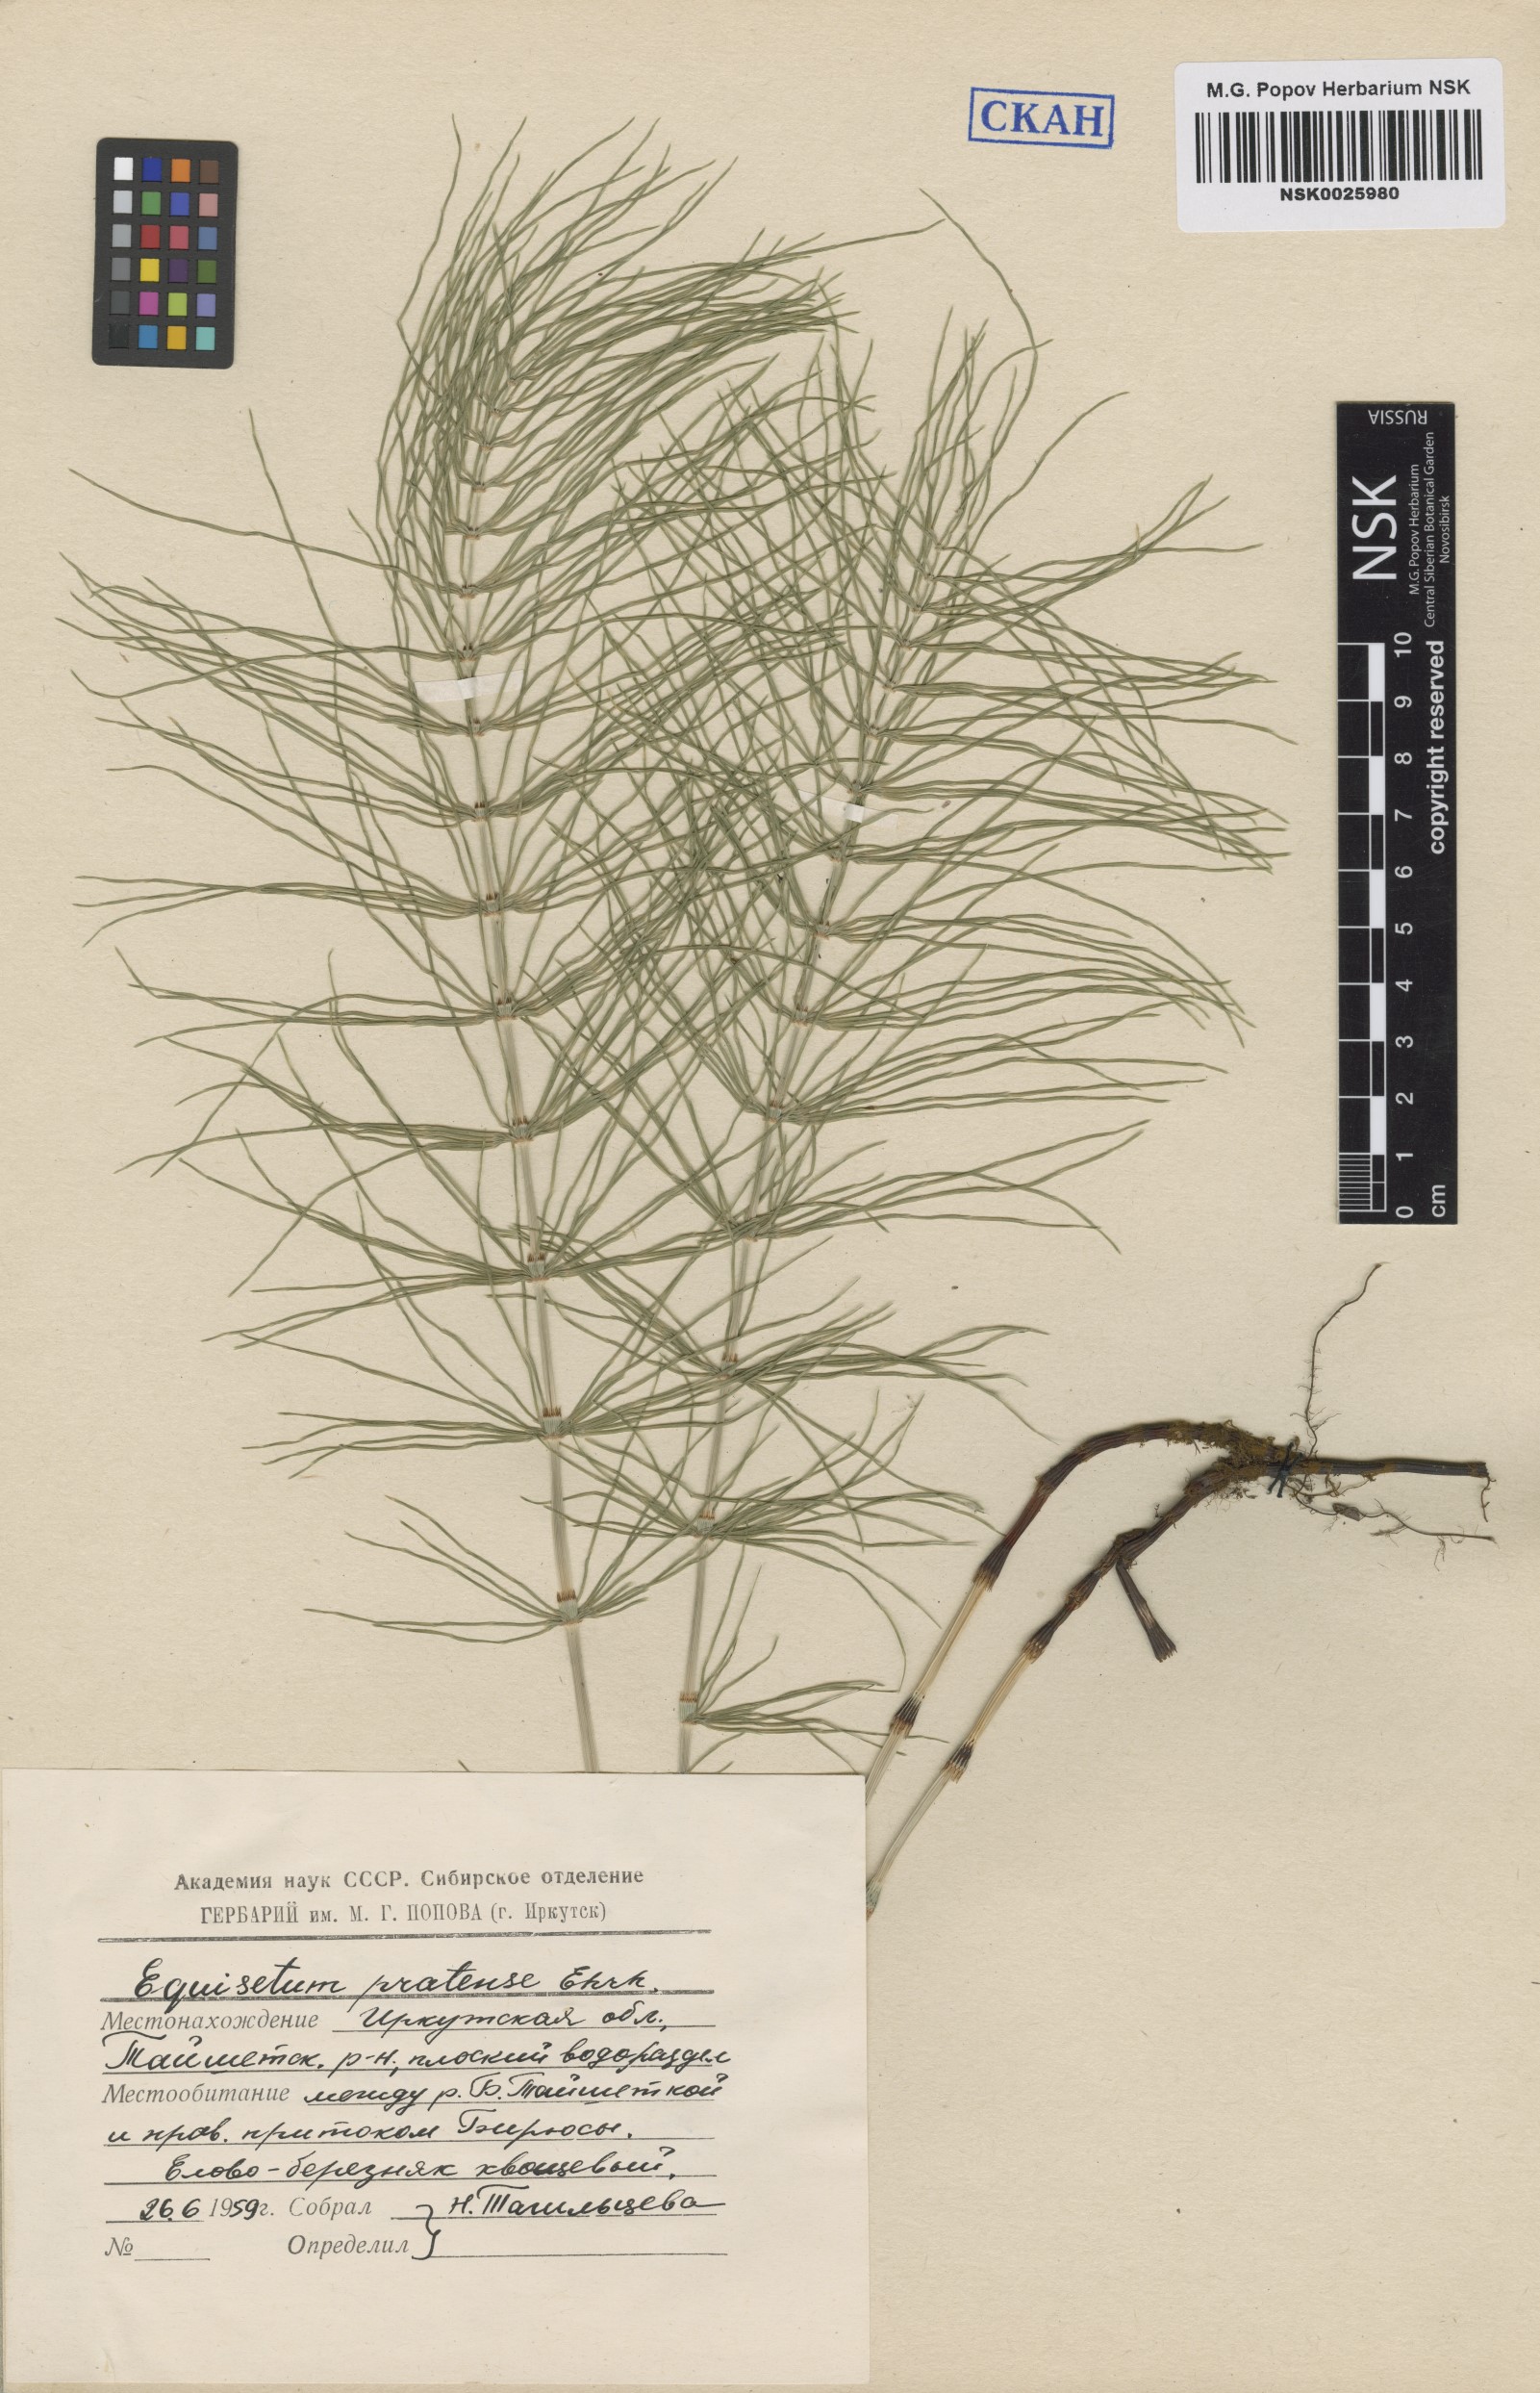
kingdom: Plantae
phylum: Tracheophyta
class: Polypodiopsida
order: Equisetales
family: Equisetaceae
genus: Equisetum
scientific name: Equisetum pratense
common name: Meadow horsetail
